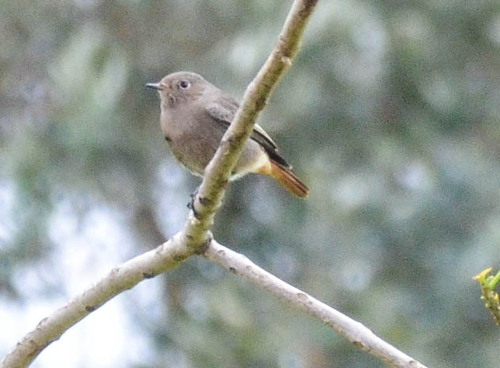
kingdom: Animalia
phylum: Chordata
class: Aves
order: Passeriformes
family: Muscicapidae
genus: Phoenicurus
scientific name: Phoenicurus ochruros
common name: Black redstart
